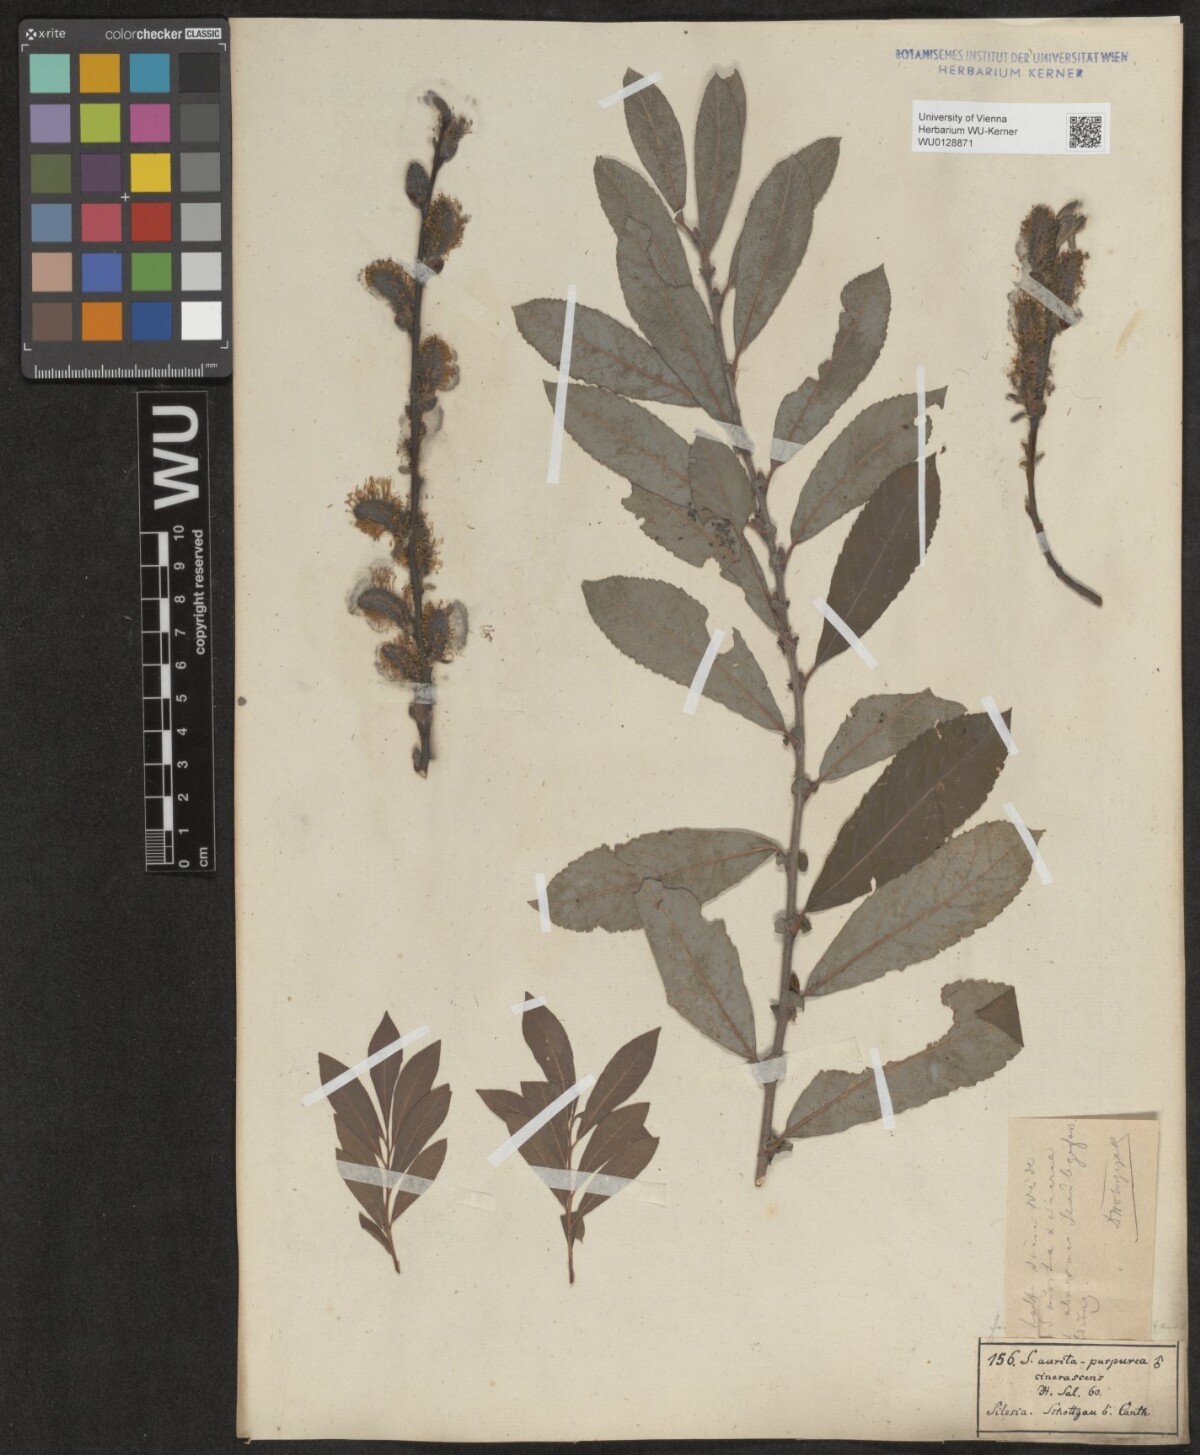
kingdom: Plantae
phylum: Tracheophyta
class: Magnoliopsida
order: Malpighiales
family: Salicaceae
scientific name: Salicaceae
